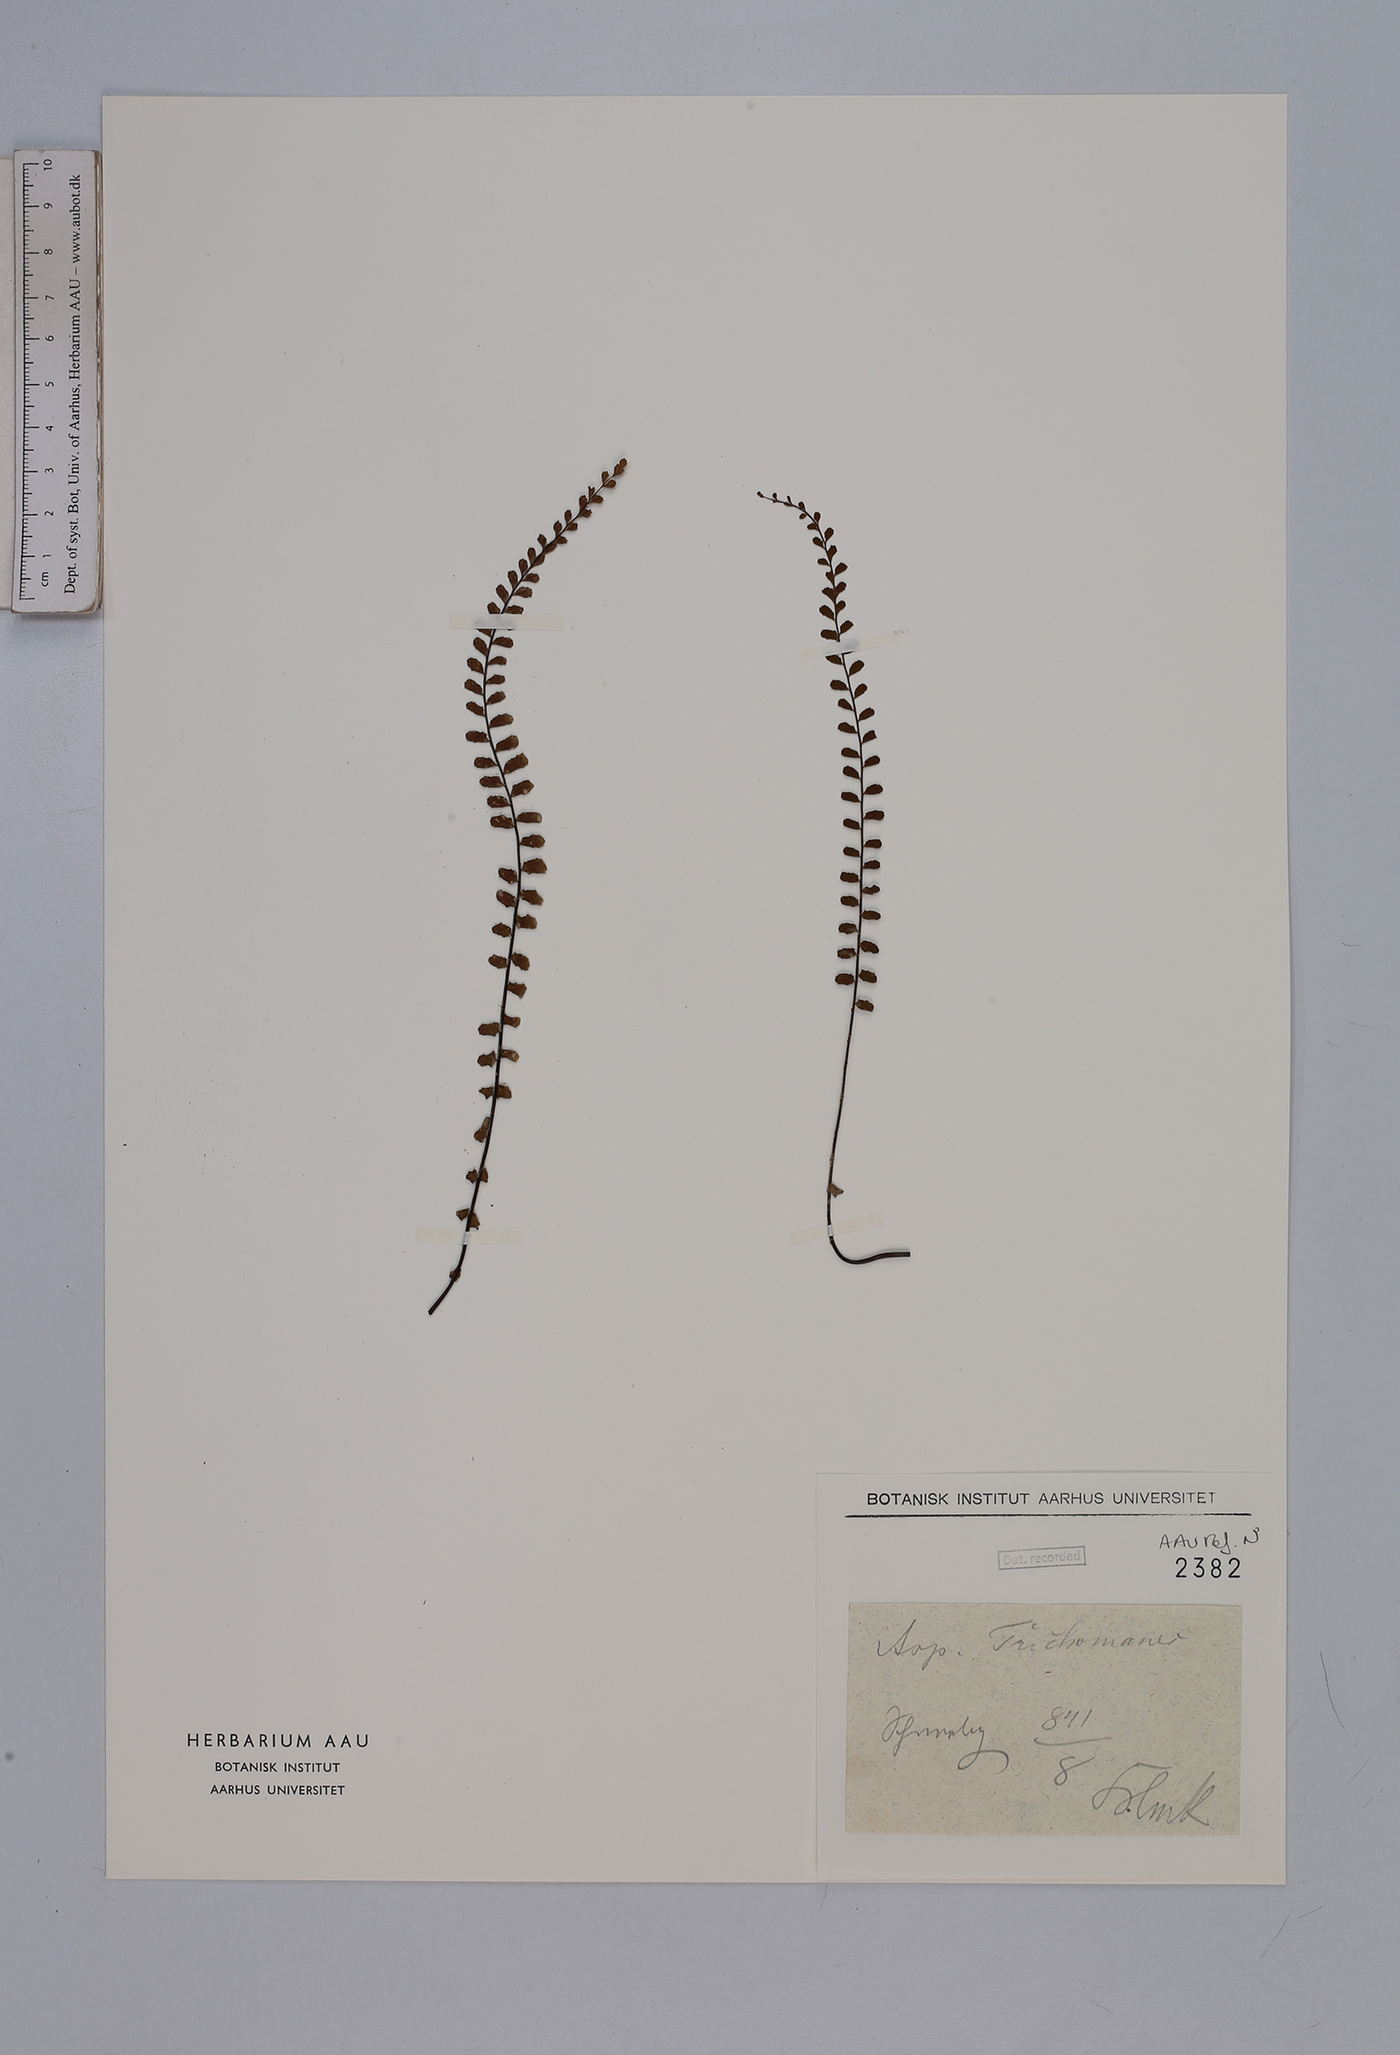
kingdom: Plantae
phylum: Tracheophyta
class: Polypodiopsida
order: Polypodiales
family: Aspleniaceae
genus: Asplenium
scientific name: Asplenium trichomanes
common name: Maidenhair spleenwort
